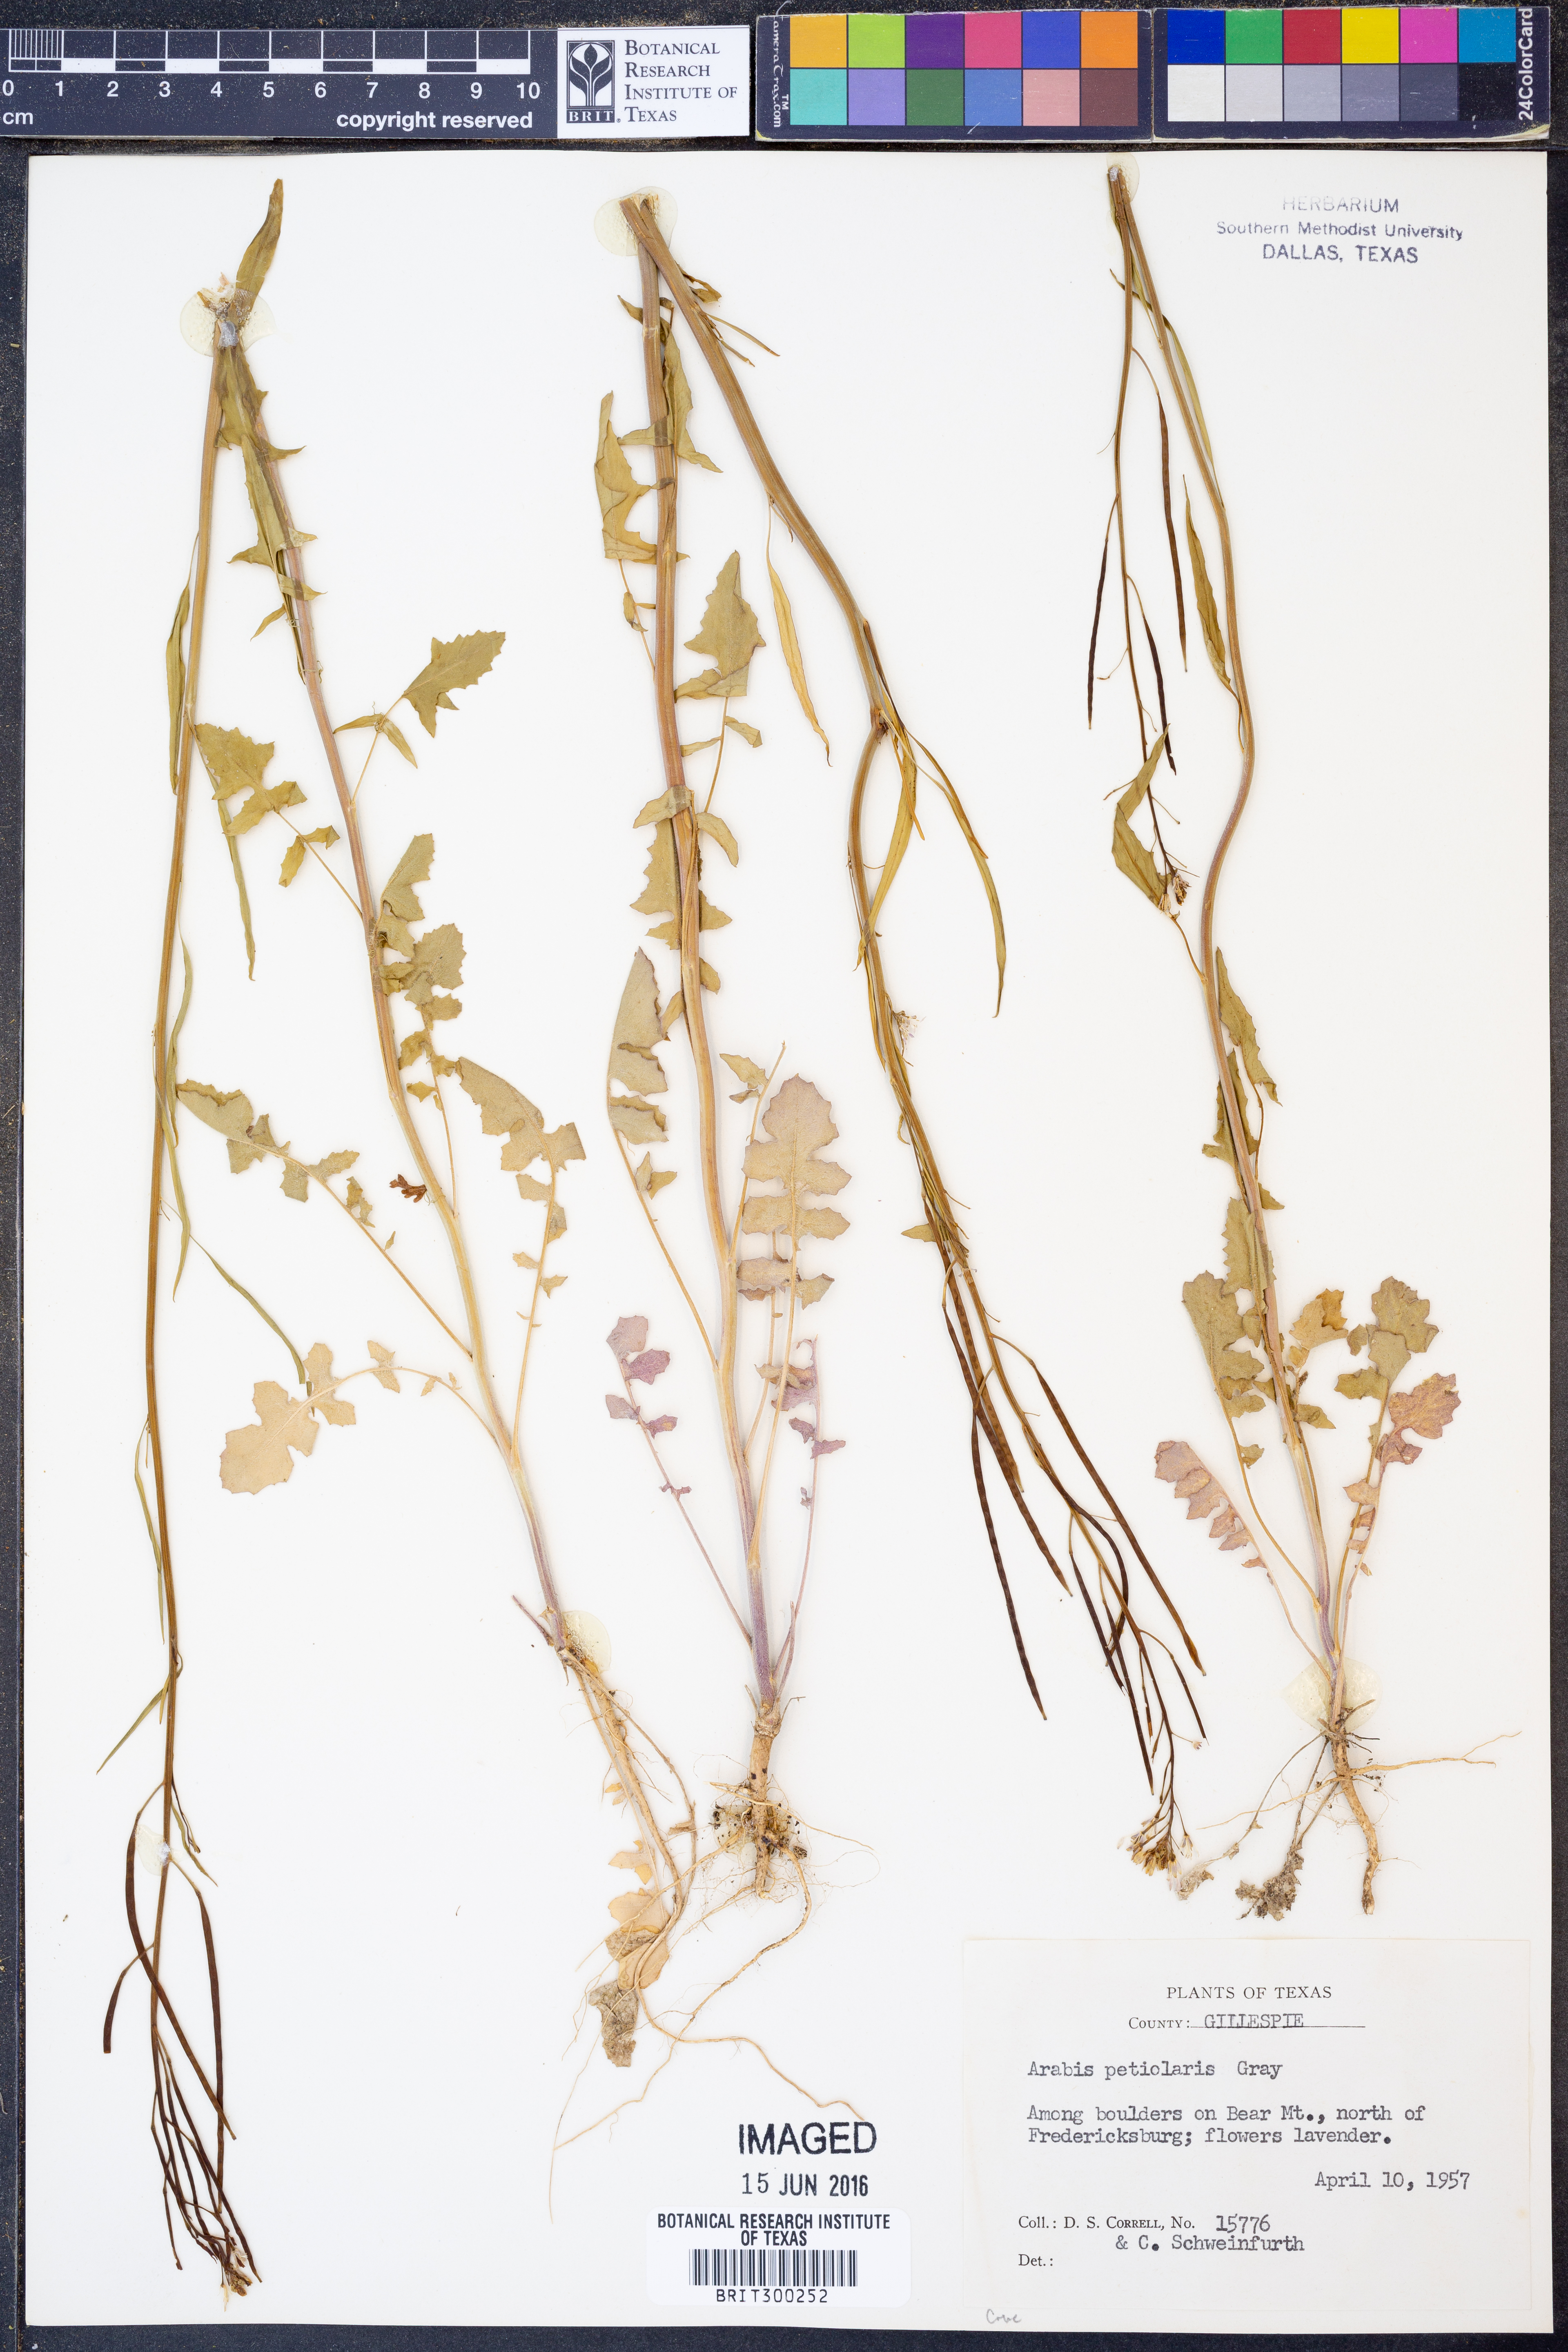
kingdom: Plantae
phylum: Tracheophyta
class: Magnoliopsida
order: Brassicales
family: Brassicaceae
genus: Streptanthus
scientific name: Streptanthus petiolaris
